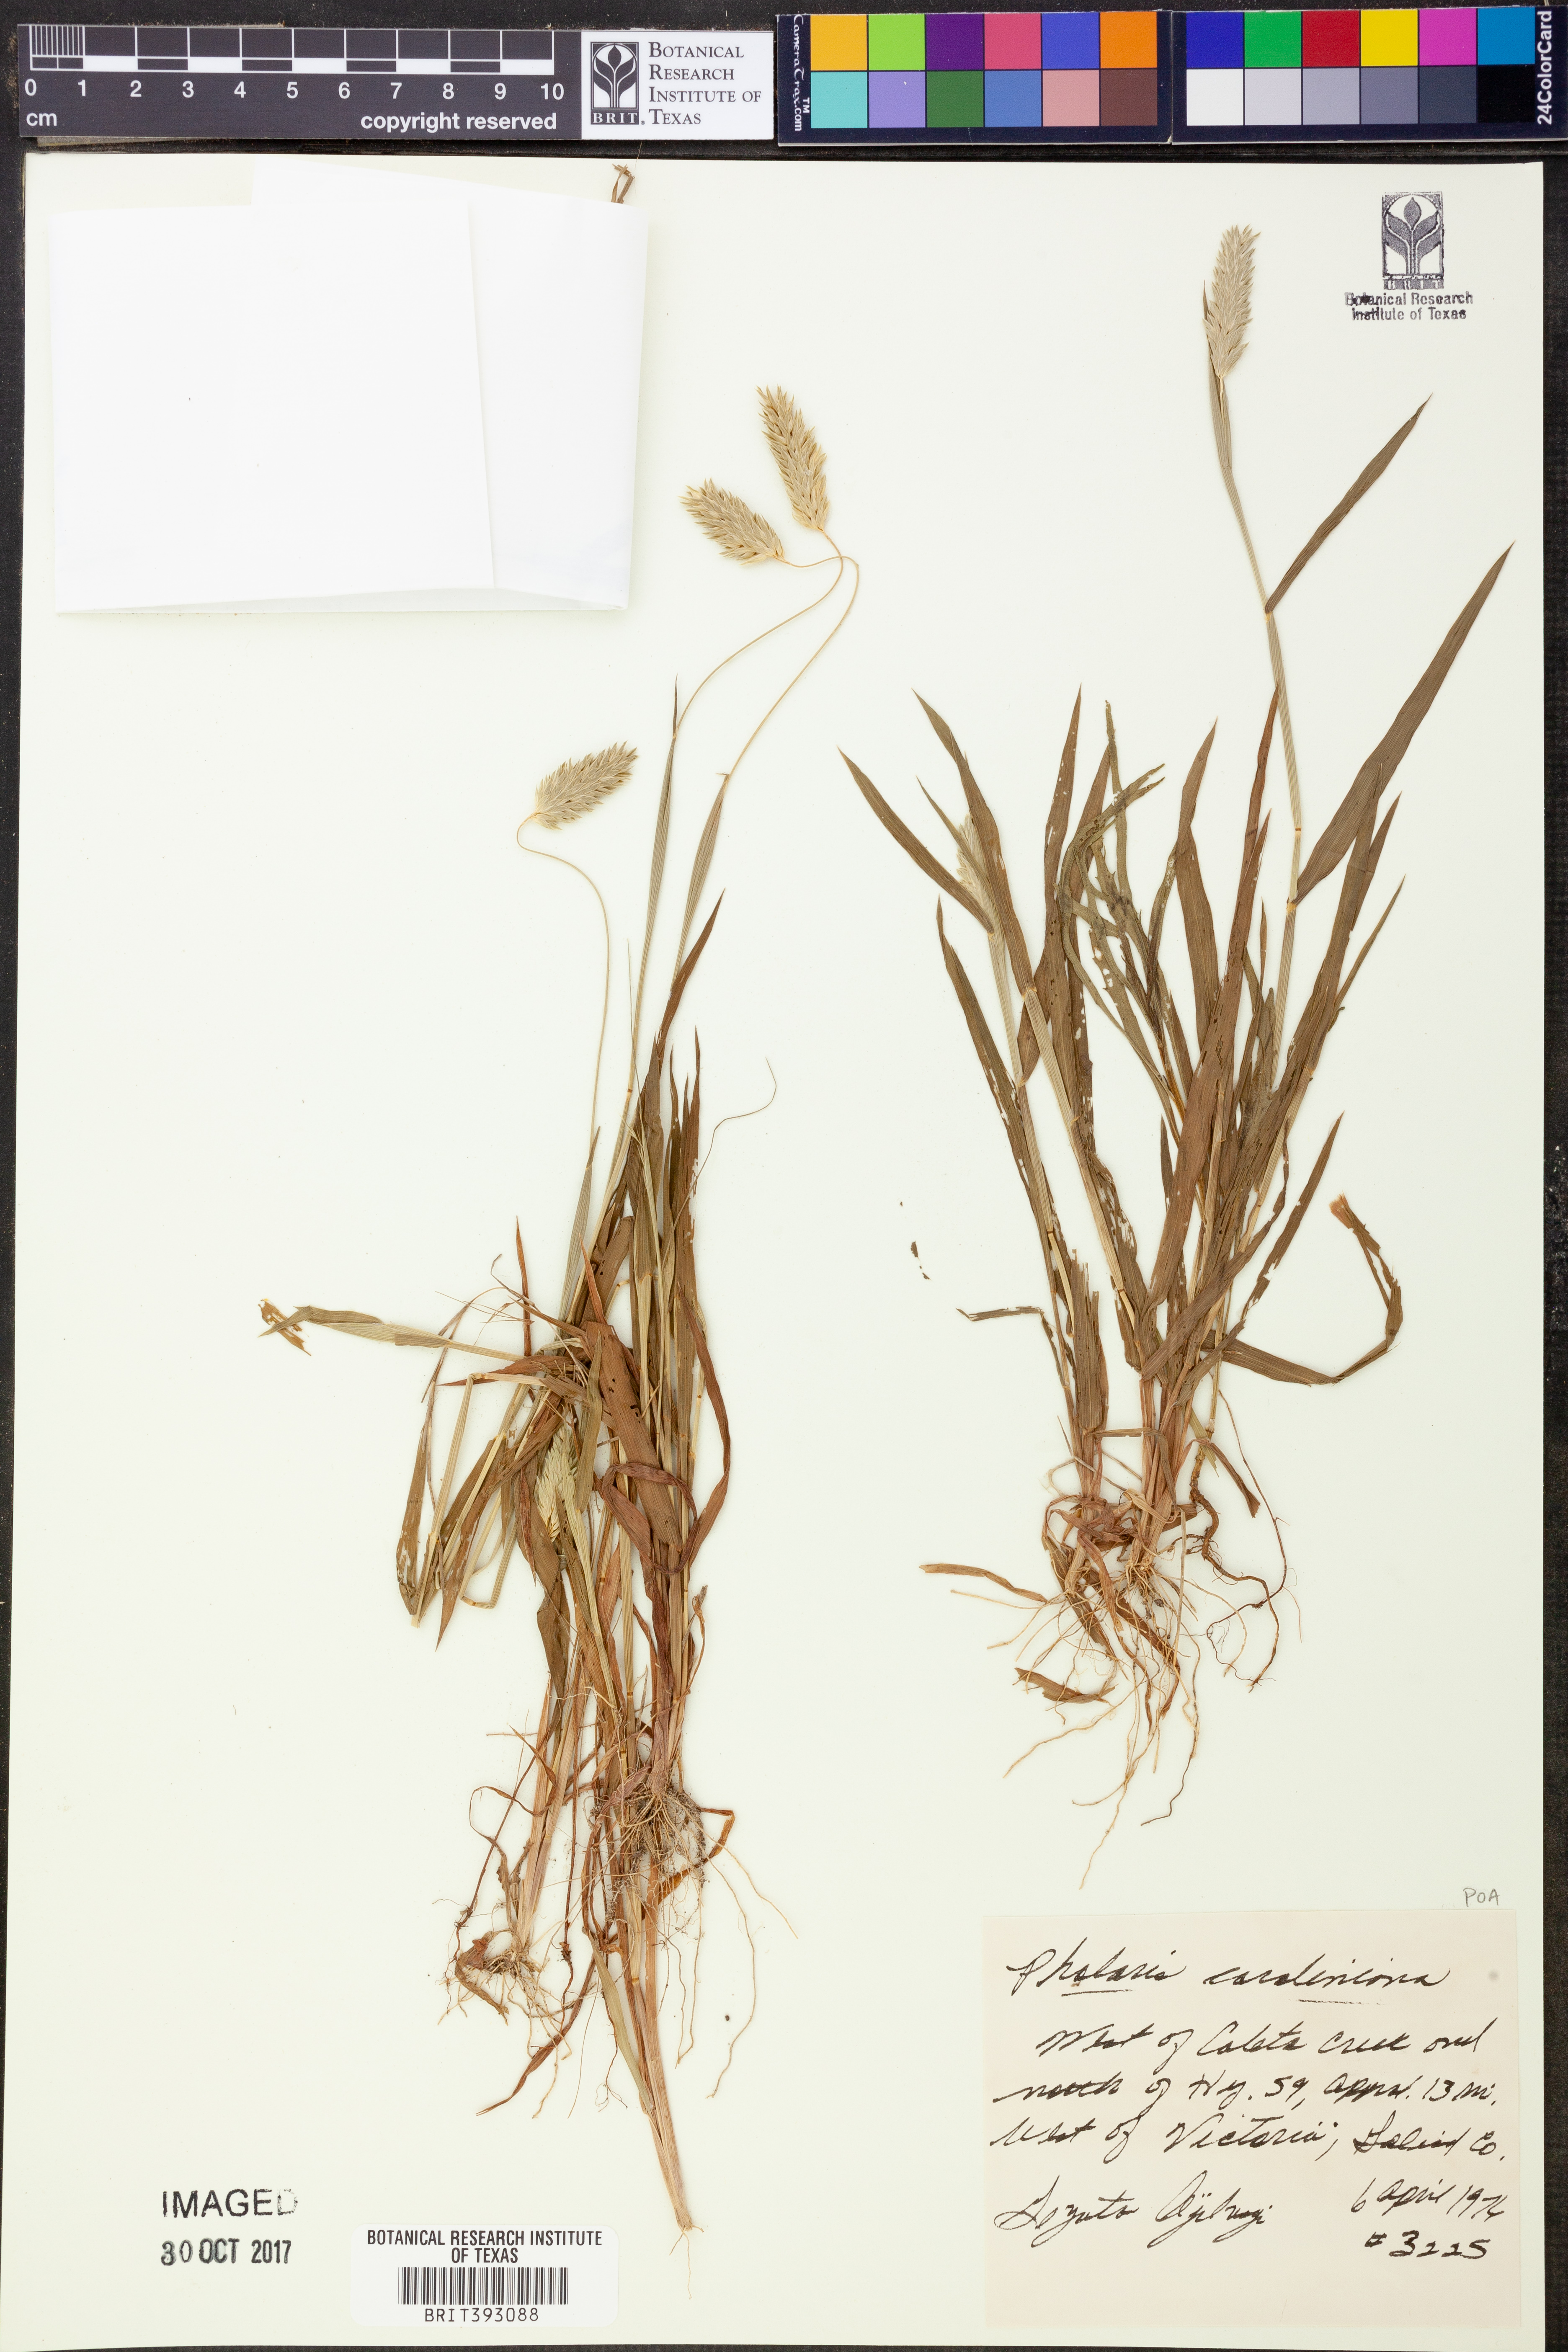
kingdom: Plantae
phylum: Tracheophyta
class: Liliopsida
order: Poales
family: Poaceae
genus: Phalaris
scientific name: Phalaris caroliniana
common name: May grass
